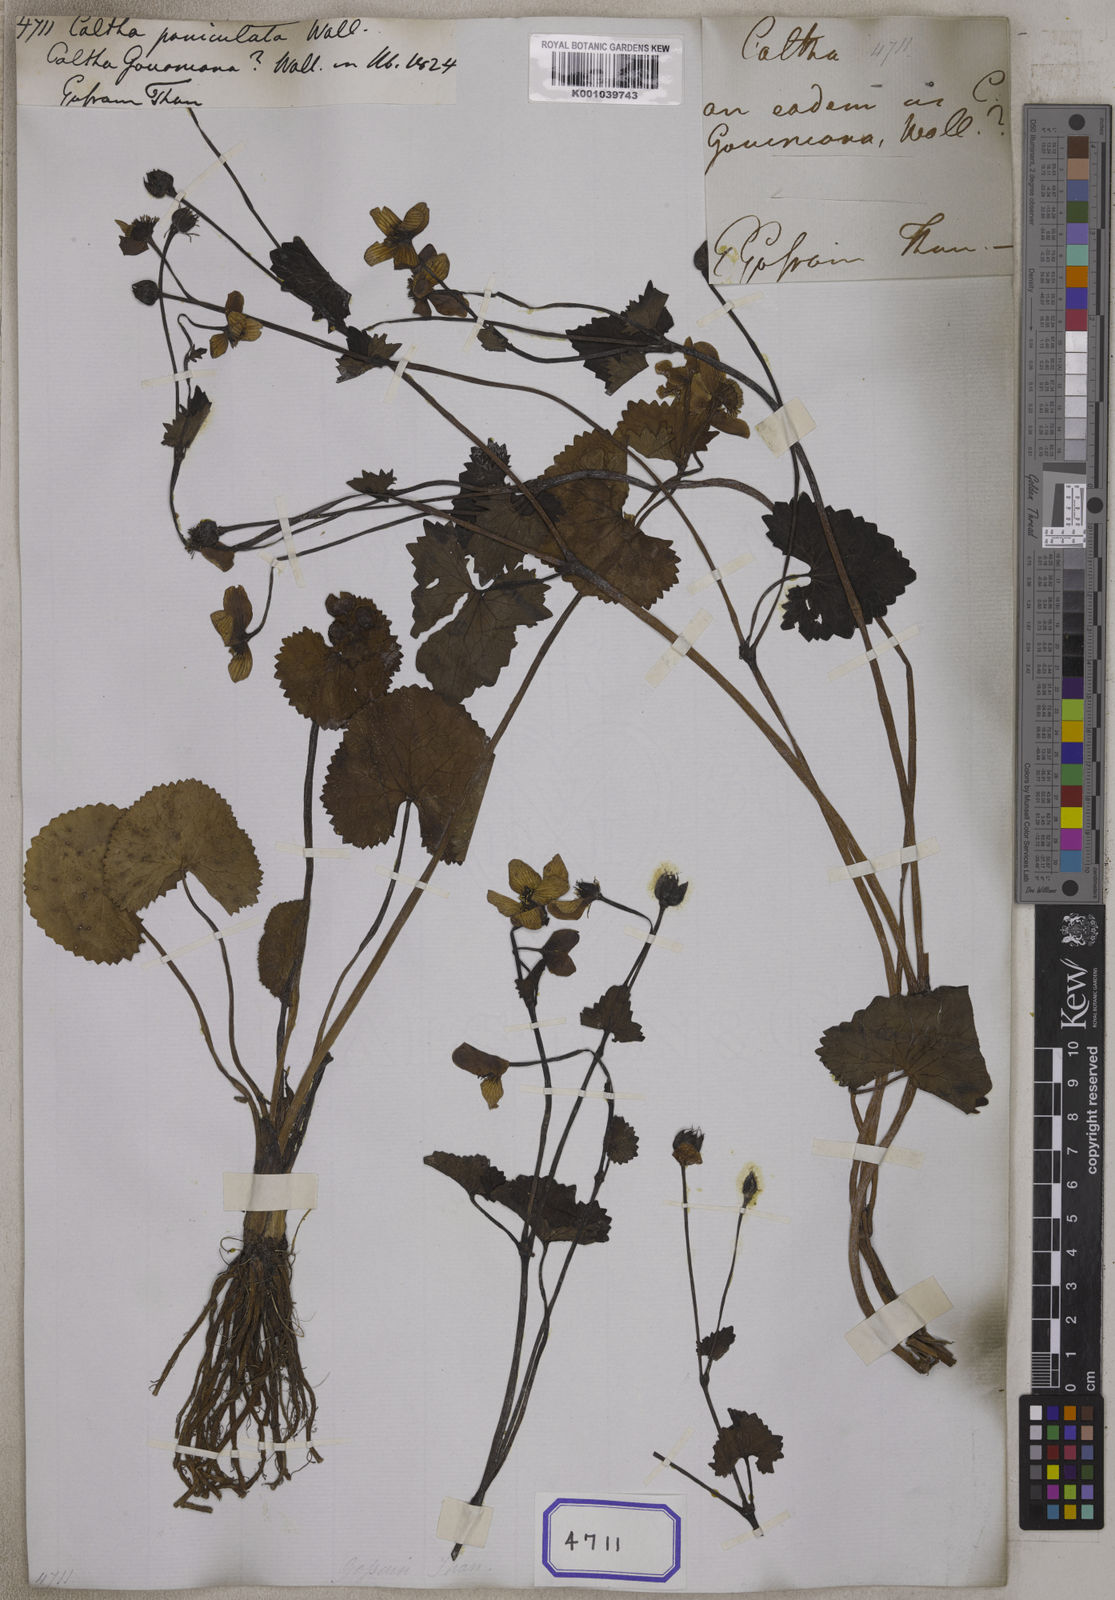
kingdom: Plantae
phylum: Tracheophyta
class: Magnoliopsida
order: Ranunculales
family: Ranunculaceae
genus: Caltha
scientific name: Caltha alba
